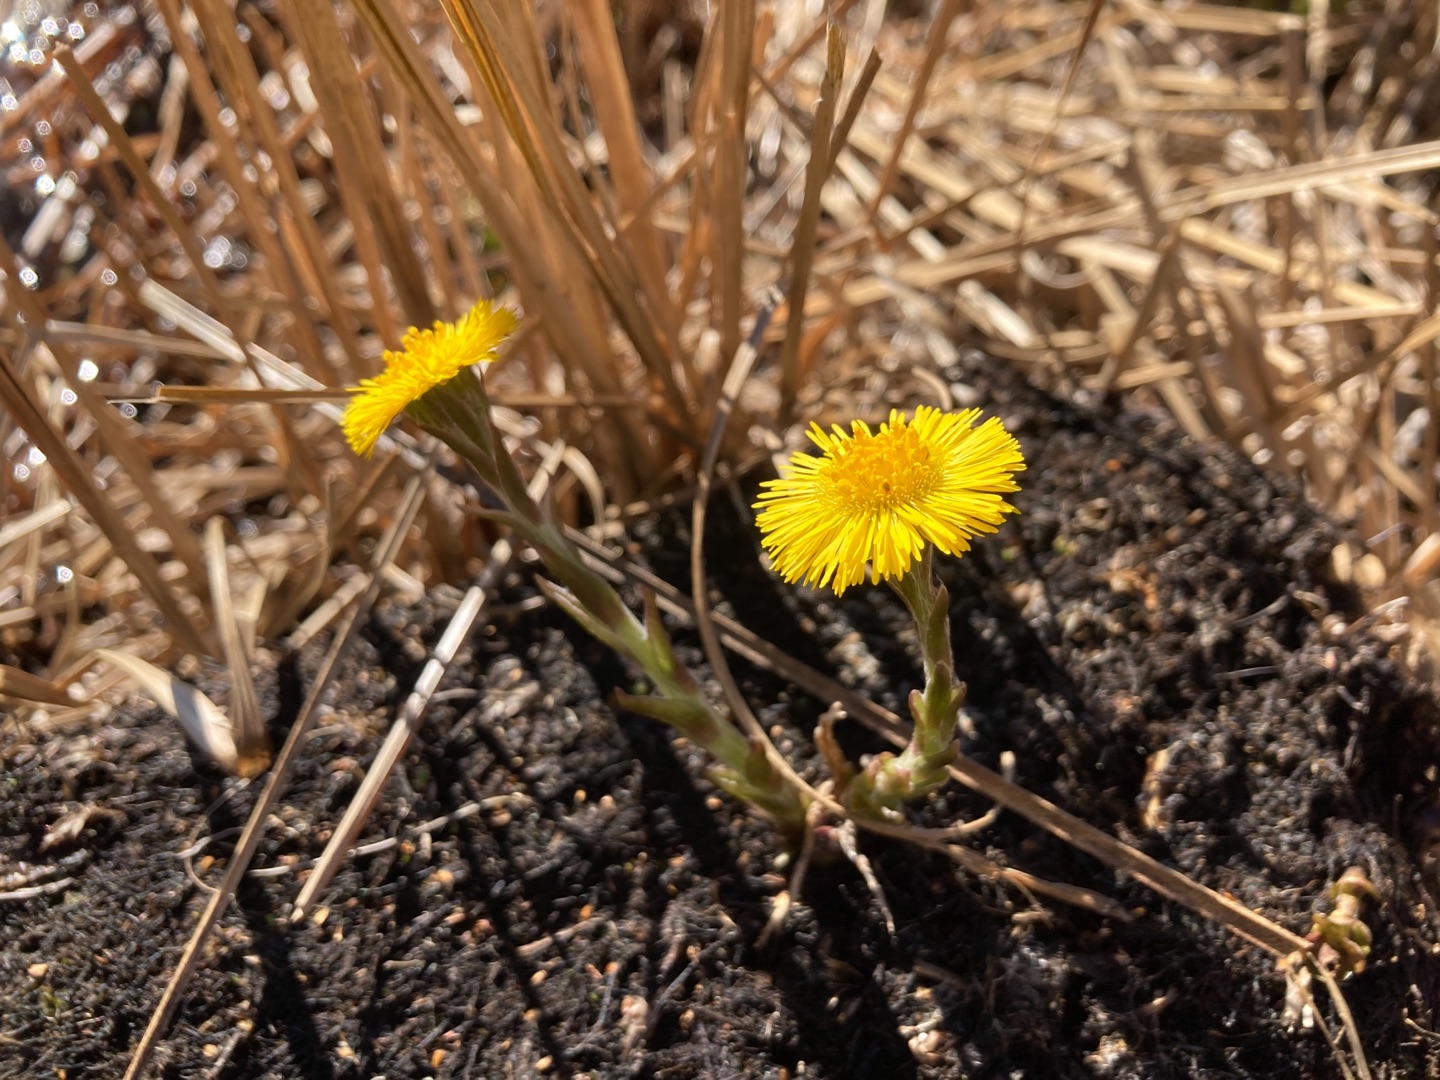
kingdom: Plantae
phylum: Tracheophyta
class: Magnoliopsida
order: Asterales
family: Asteraceae
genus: Tussilago
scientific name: Tussilago farfara
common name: Følfod
